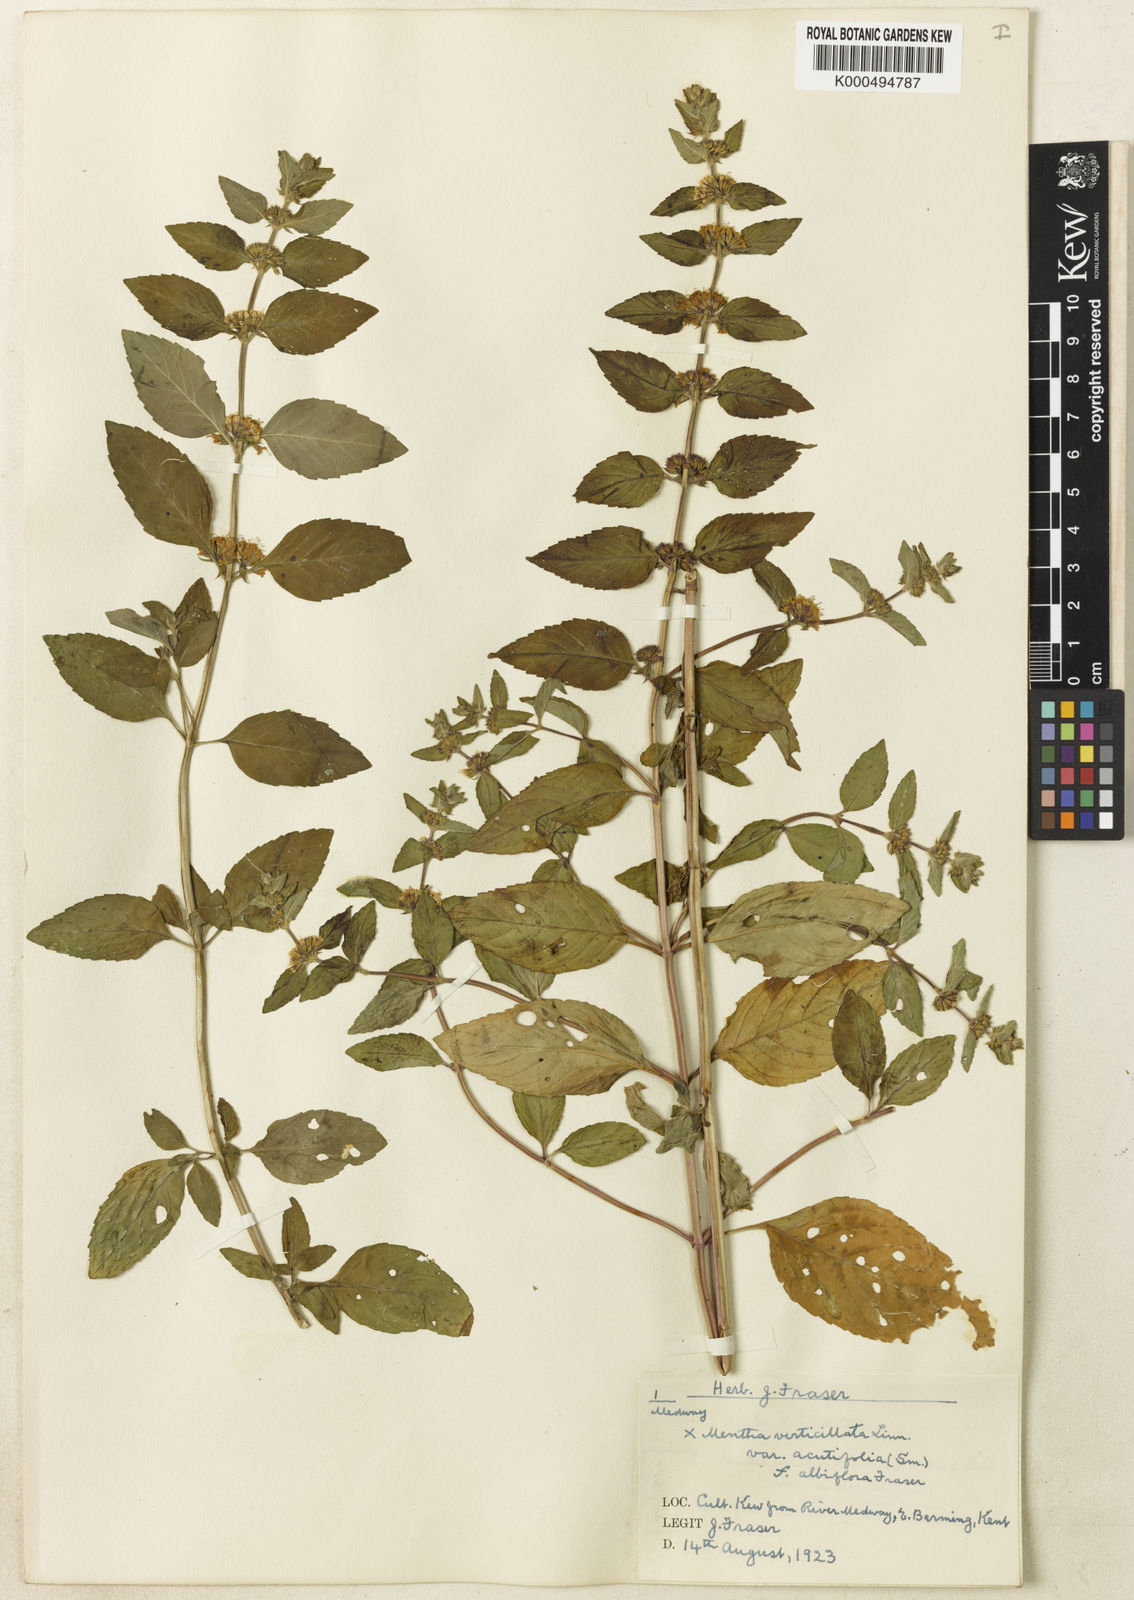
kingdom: Plantae
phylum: Tracheophyta
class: Magnoliopsida
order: Lamiales
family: Lamiaceae
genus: Mentha
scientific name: Mentha verticillata
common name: Mint
